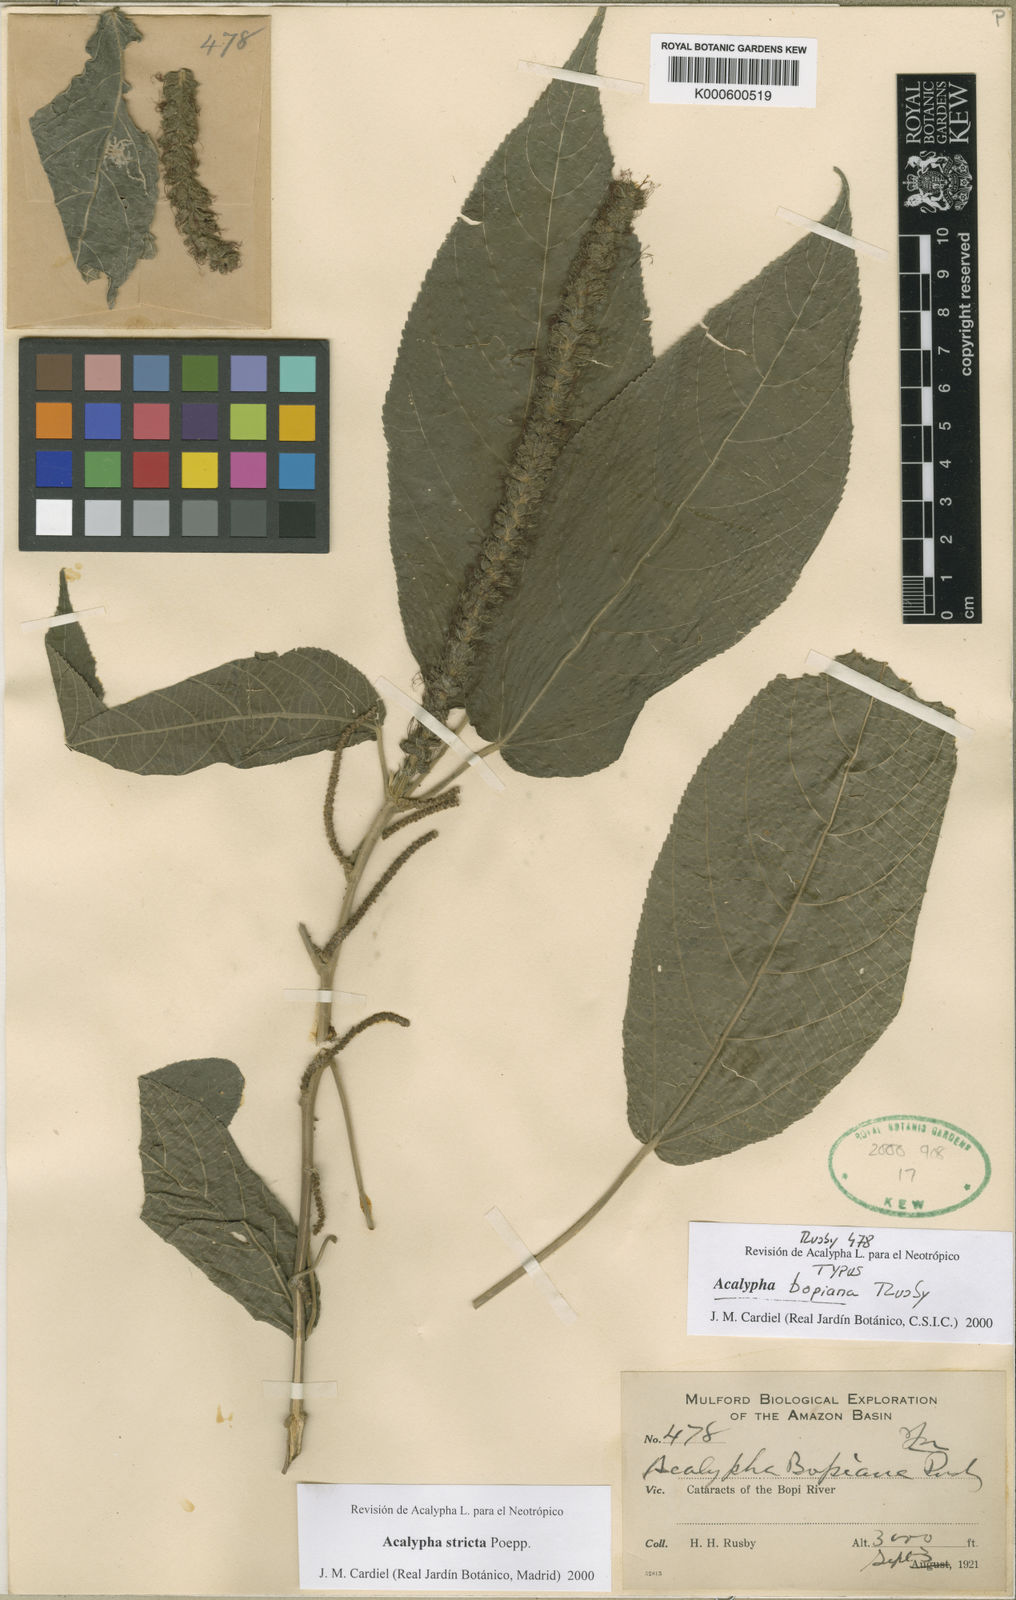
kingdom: Plantae
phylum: Tracheophyta
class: Magnoliopsida
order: Malpighiales
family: Euphorbiaceae
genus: Acalypha
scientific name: Acalypha stricta
